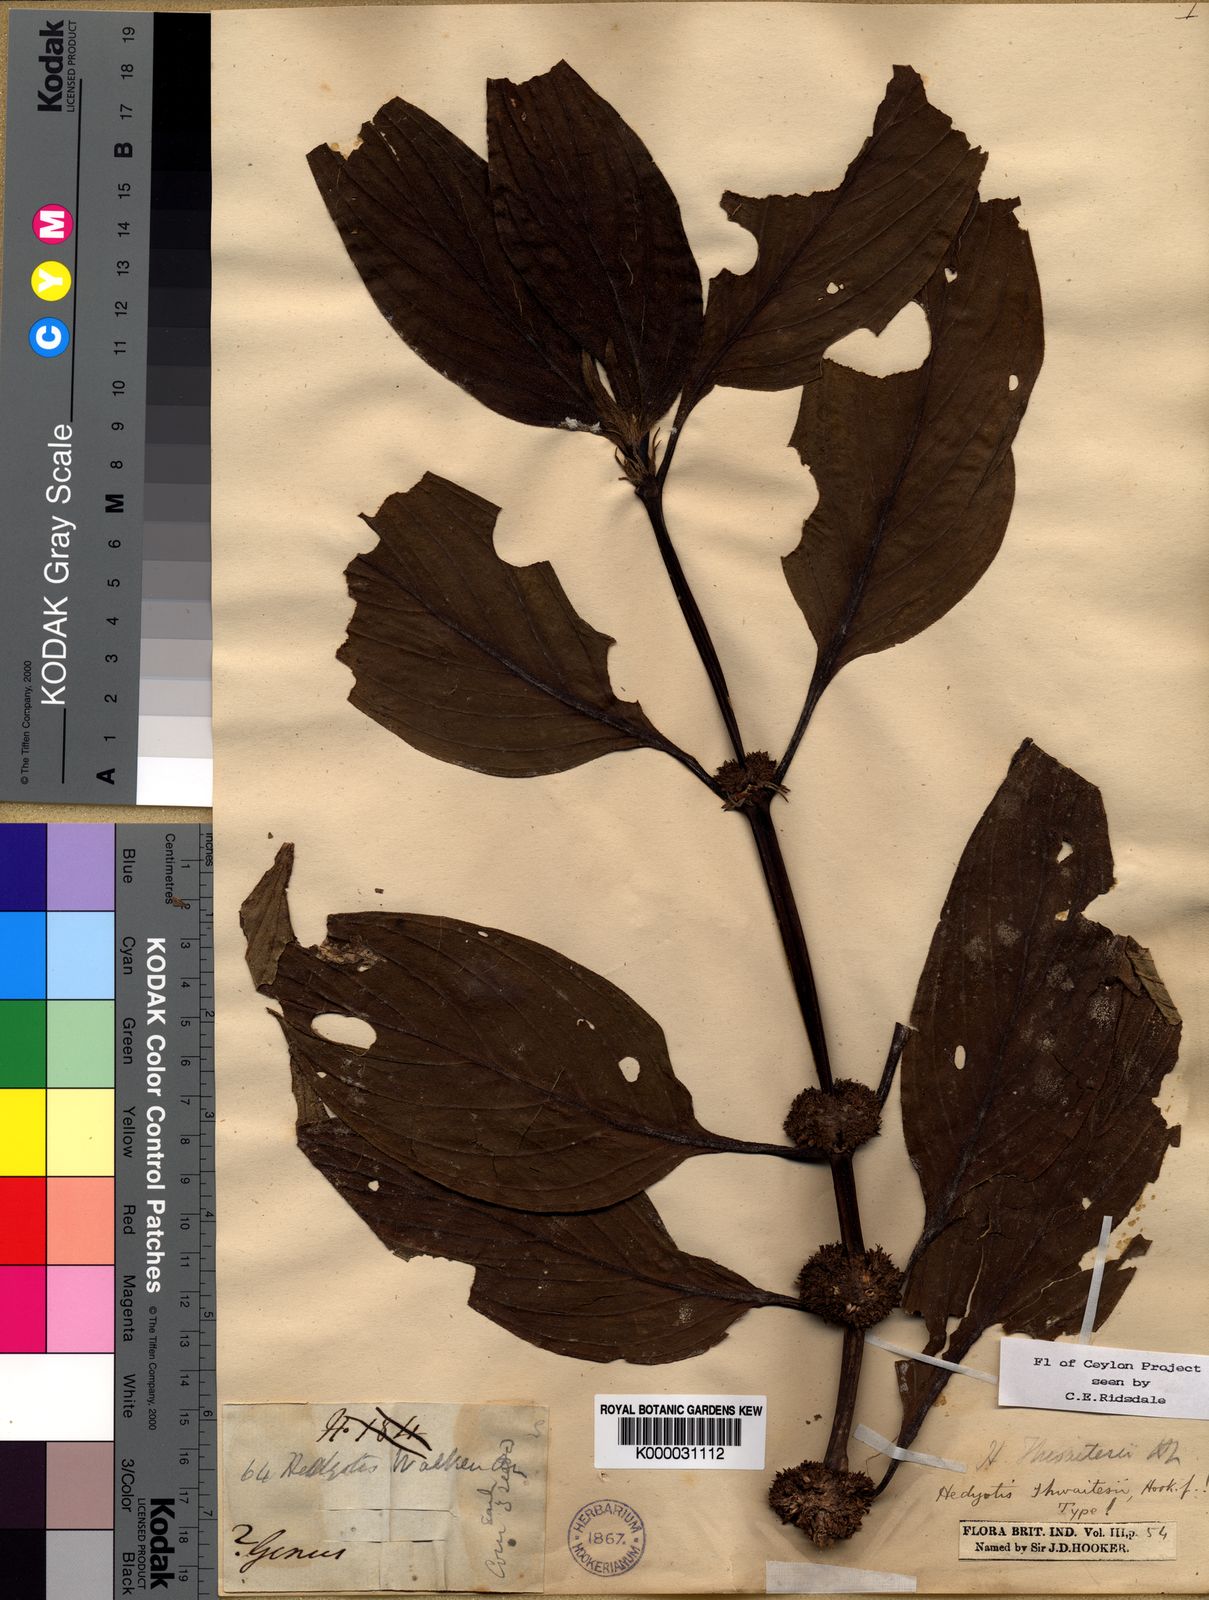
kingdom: Plantae
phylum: Tracheophyta
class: Magnoliopsida
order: Gentianales
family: Rubiaceae
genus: Hedyotis
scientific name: Hedyotis thwaitesii
